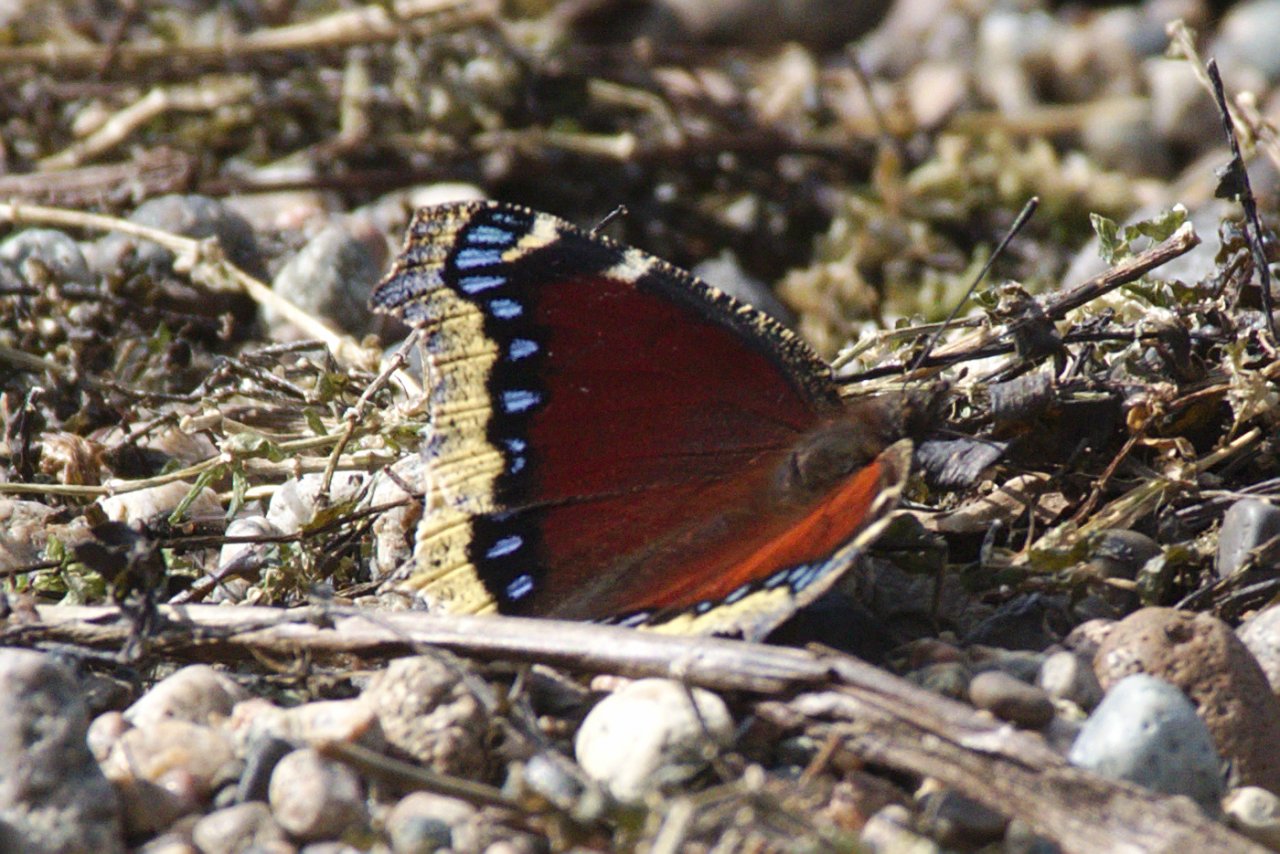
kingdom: Animalia
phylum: Arthropoda
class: Insecta
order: Lepidoptera
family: Nymphalidae
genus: Nymphalis
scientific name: Nymphalis antiopa
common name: Mourning Cloak
